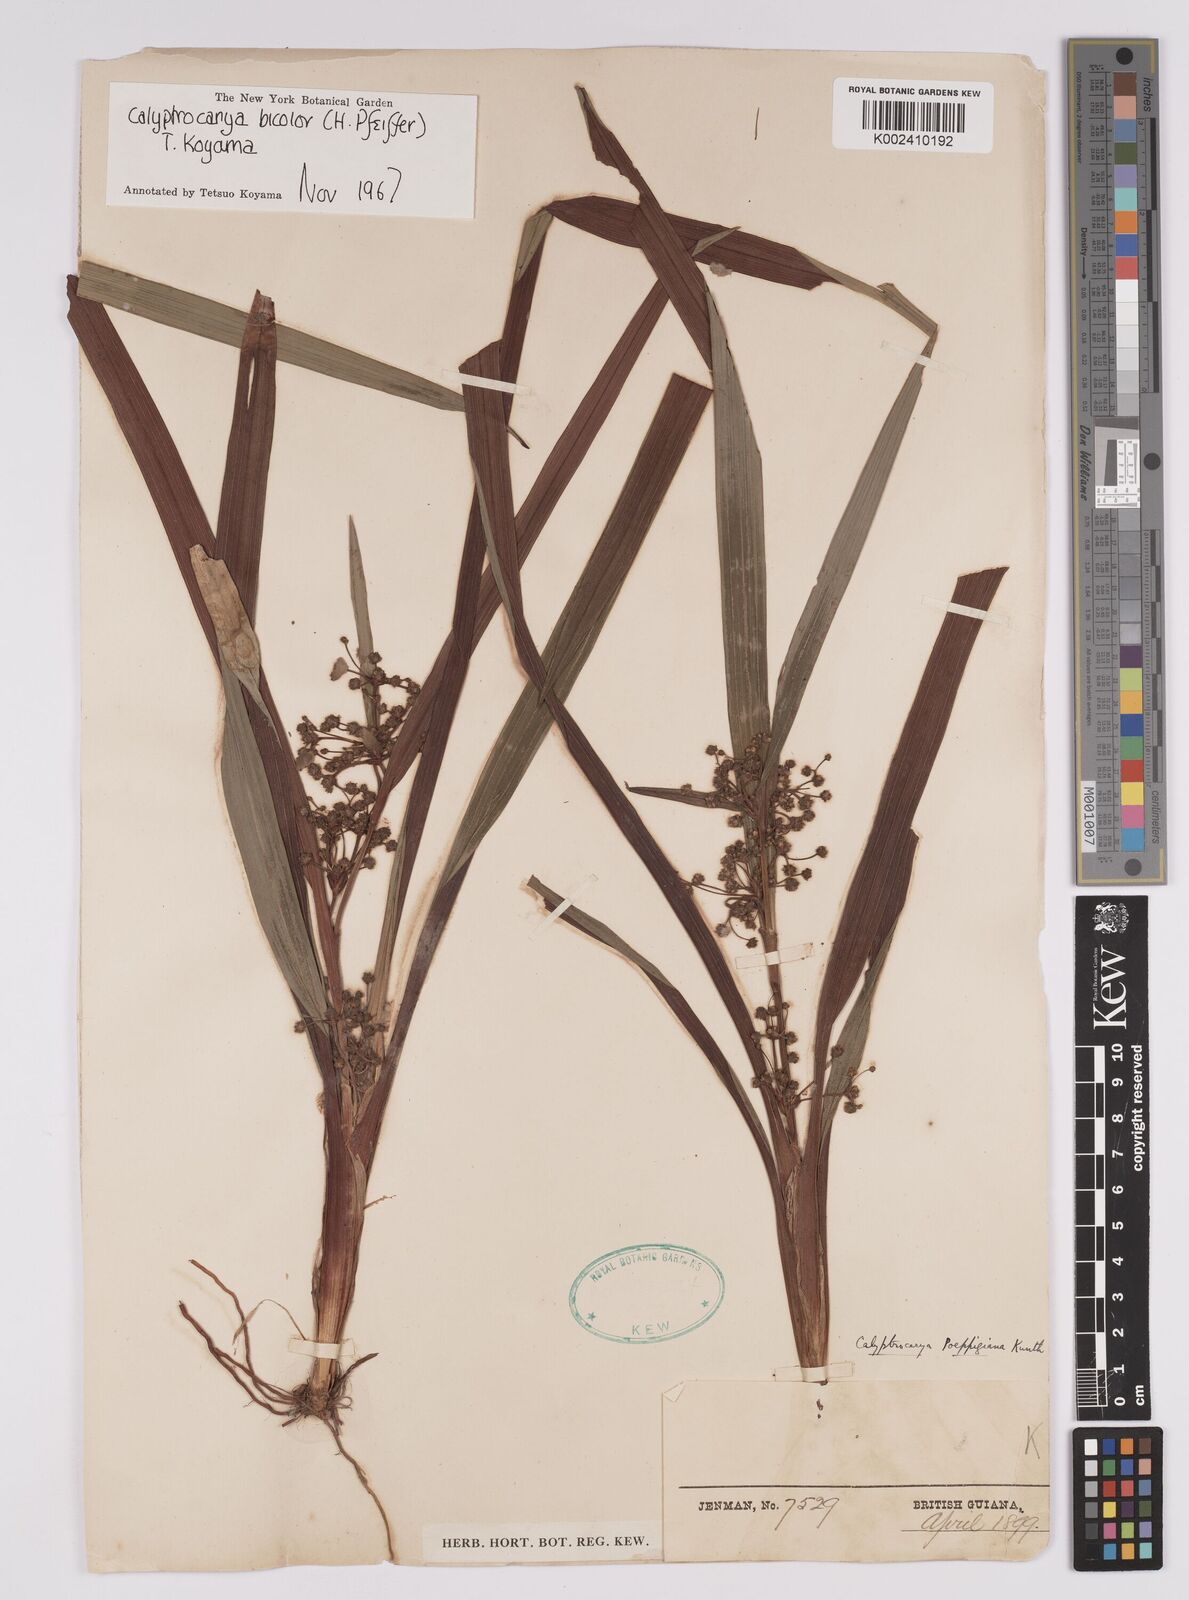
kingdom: Plantae
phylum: Tracheophyta
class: Liliopsida
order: Poales
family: Cyperaceae
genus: Calyptrocarya
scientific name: Calyptrocarya bicolor
